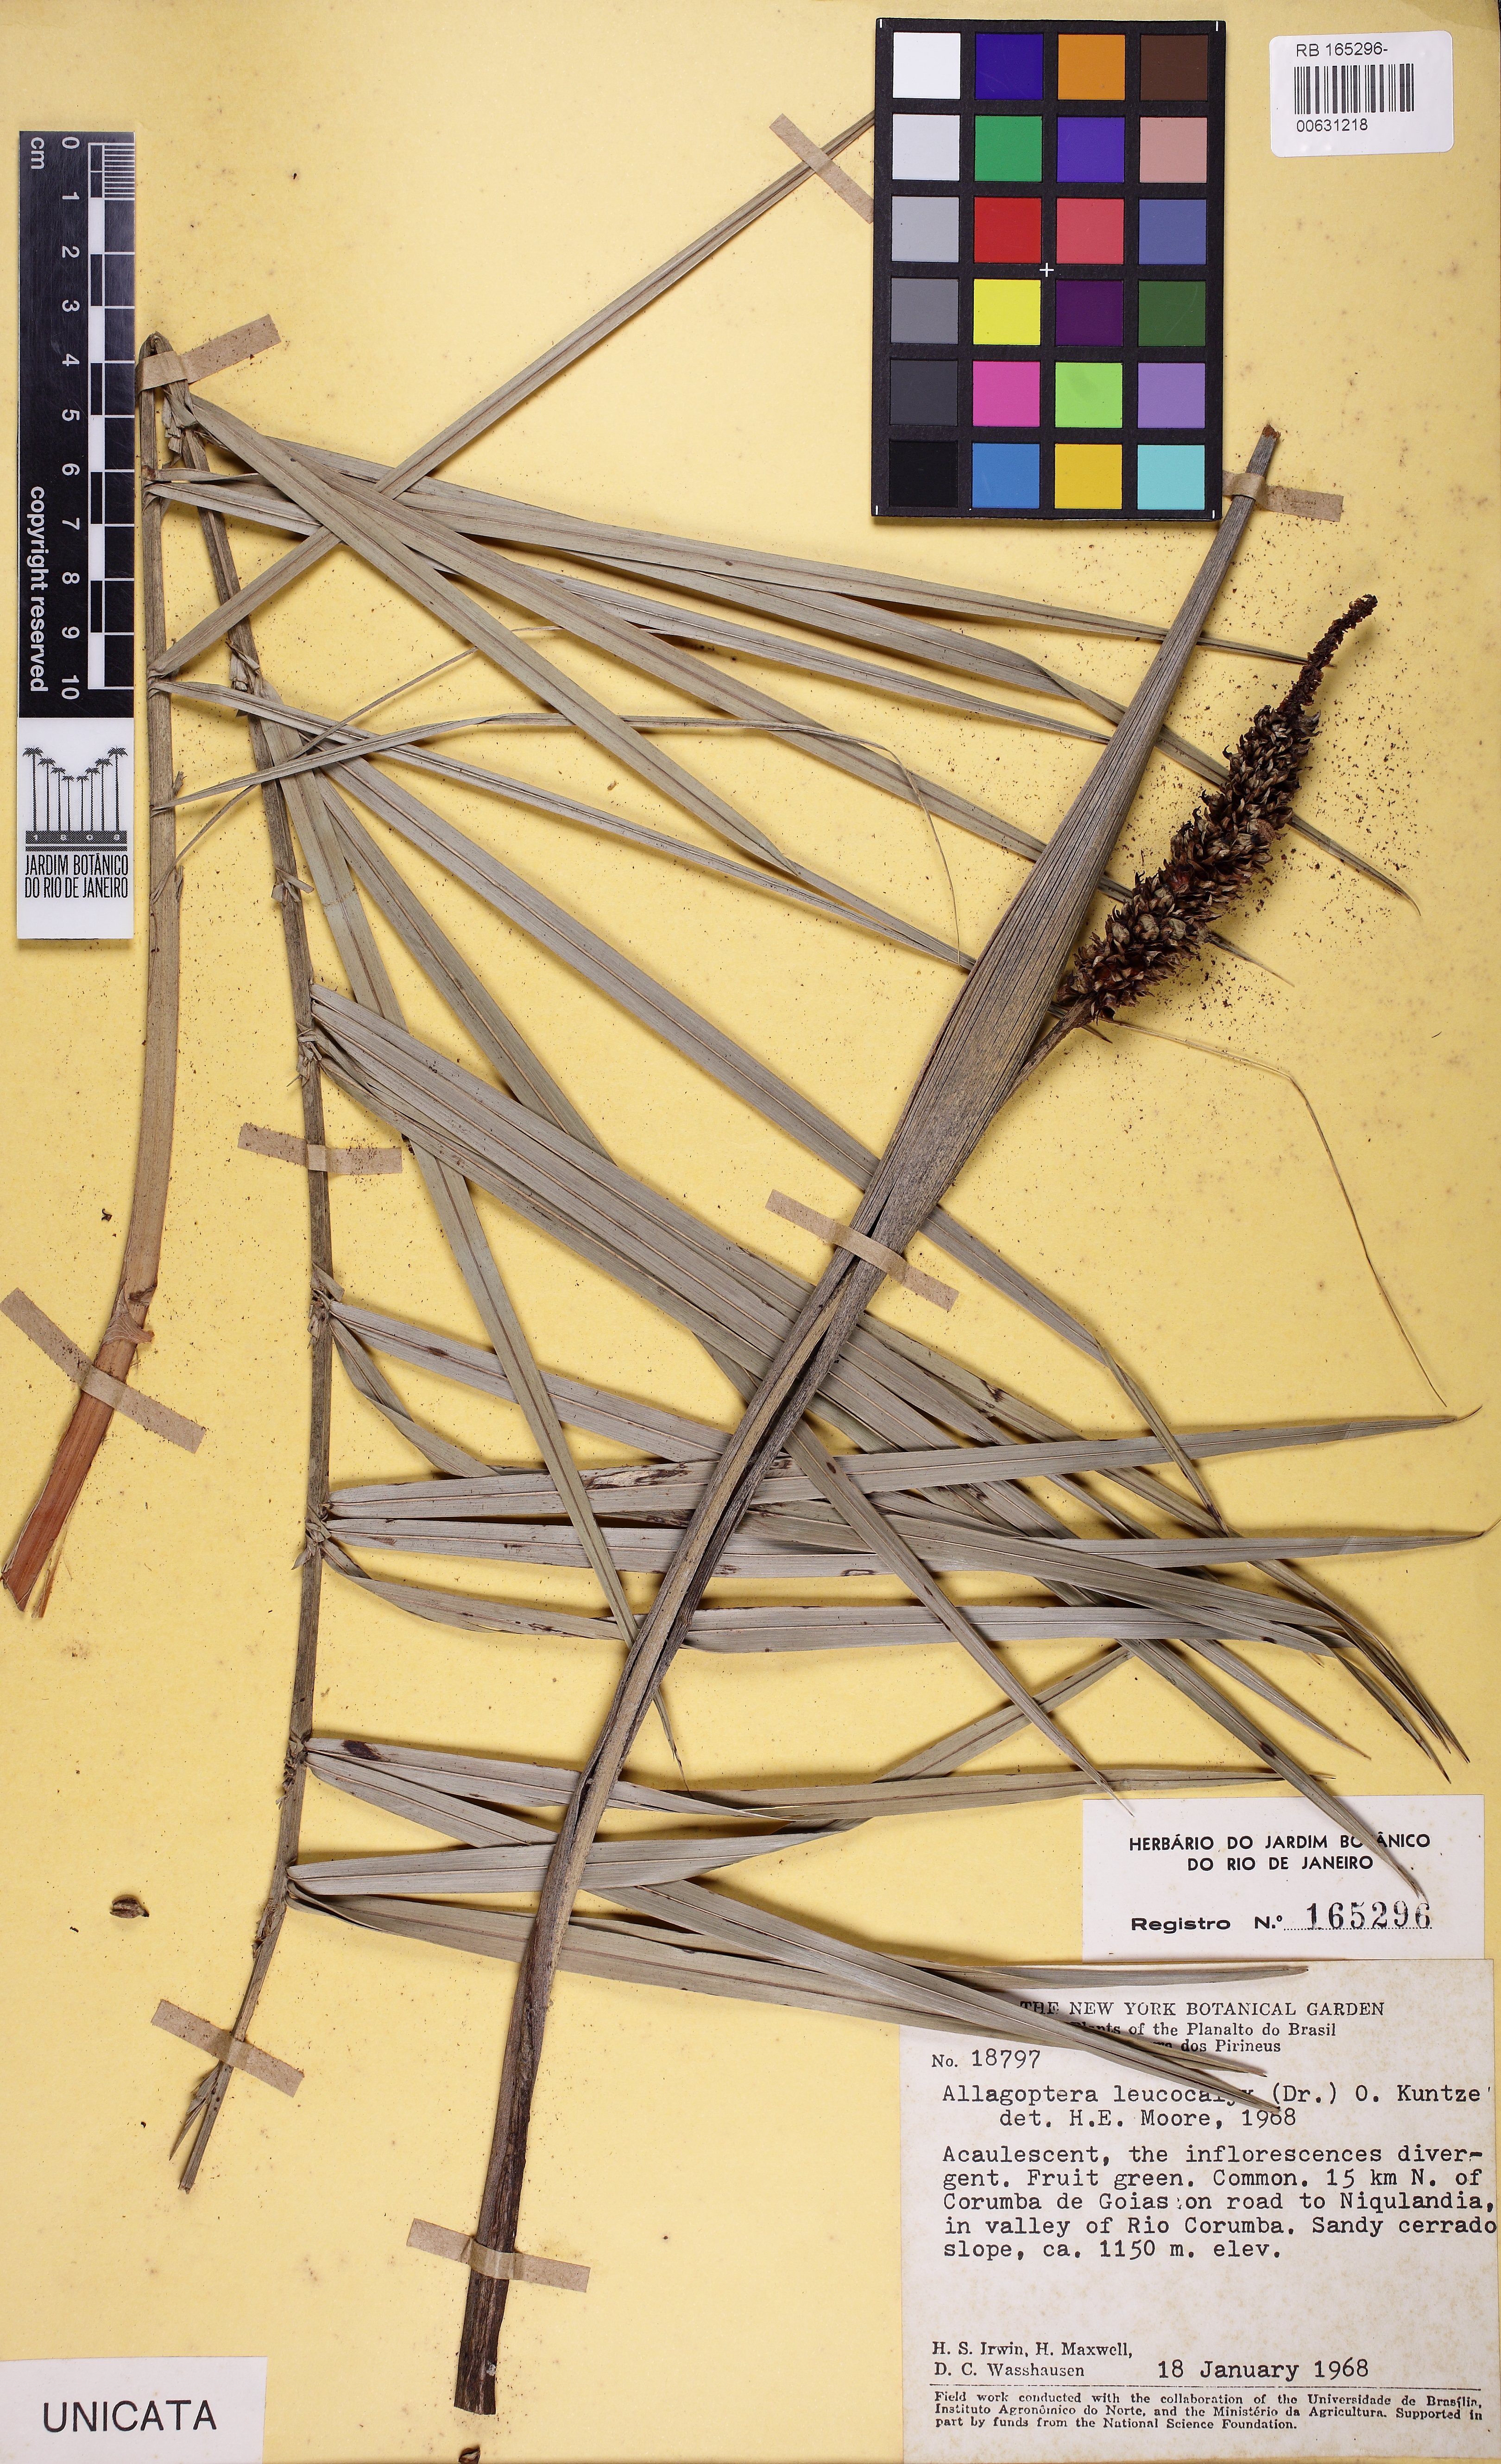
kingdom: Plantae
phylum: Tracheophyta
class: Liliopsida
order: Arecales
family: Arecaceae
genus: Allagoptera
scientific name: Allagoptera leucocalyx
